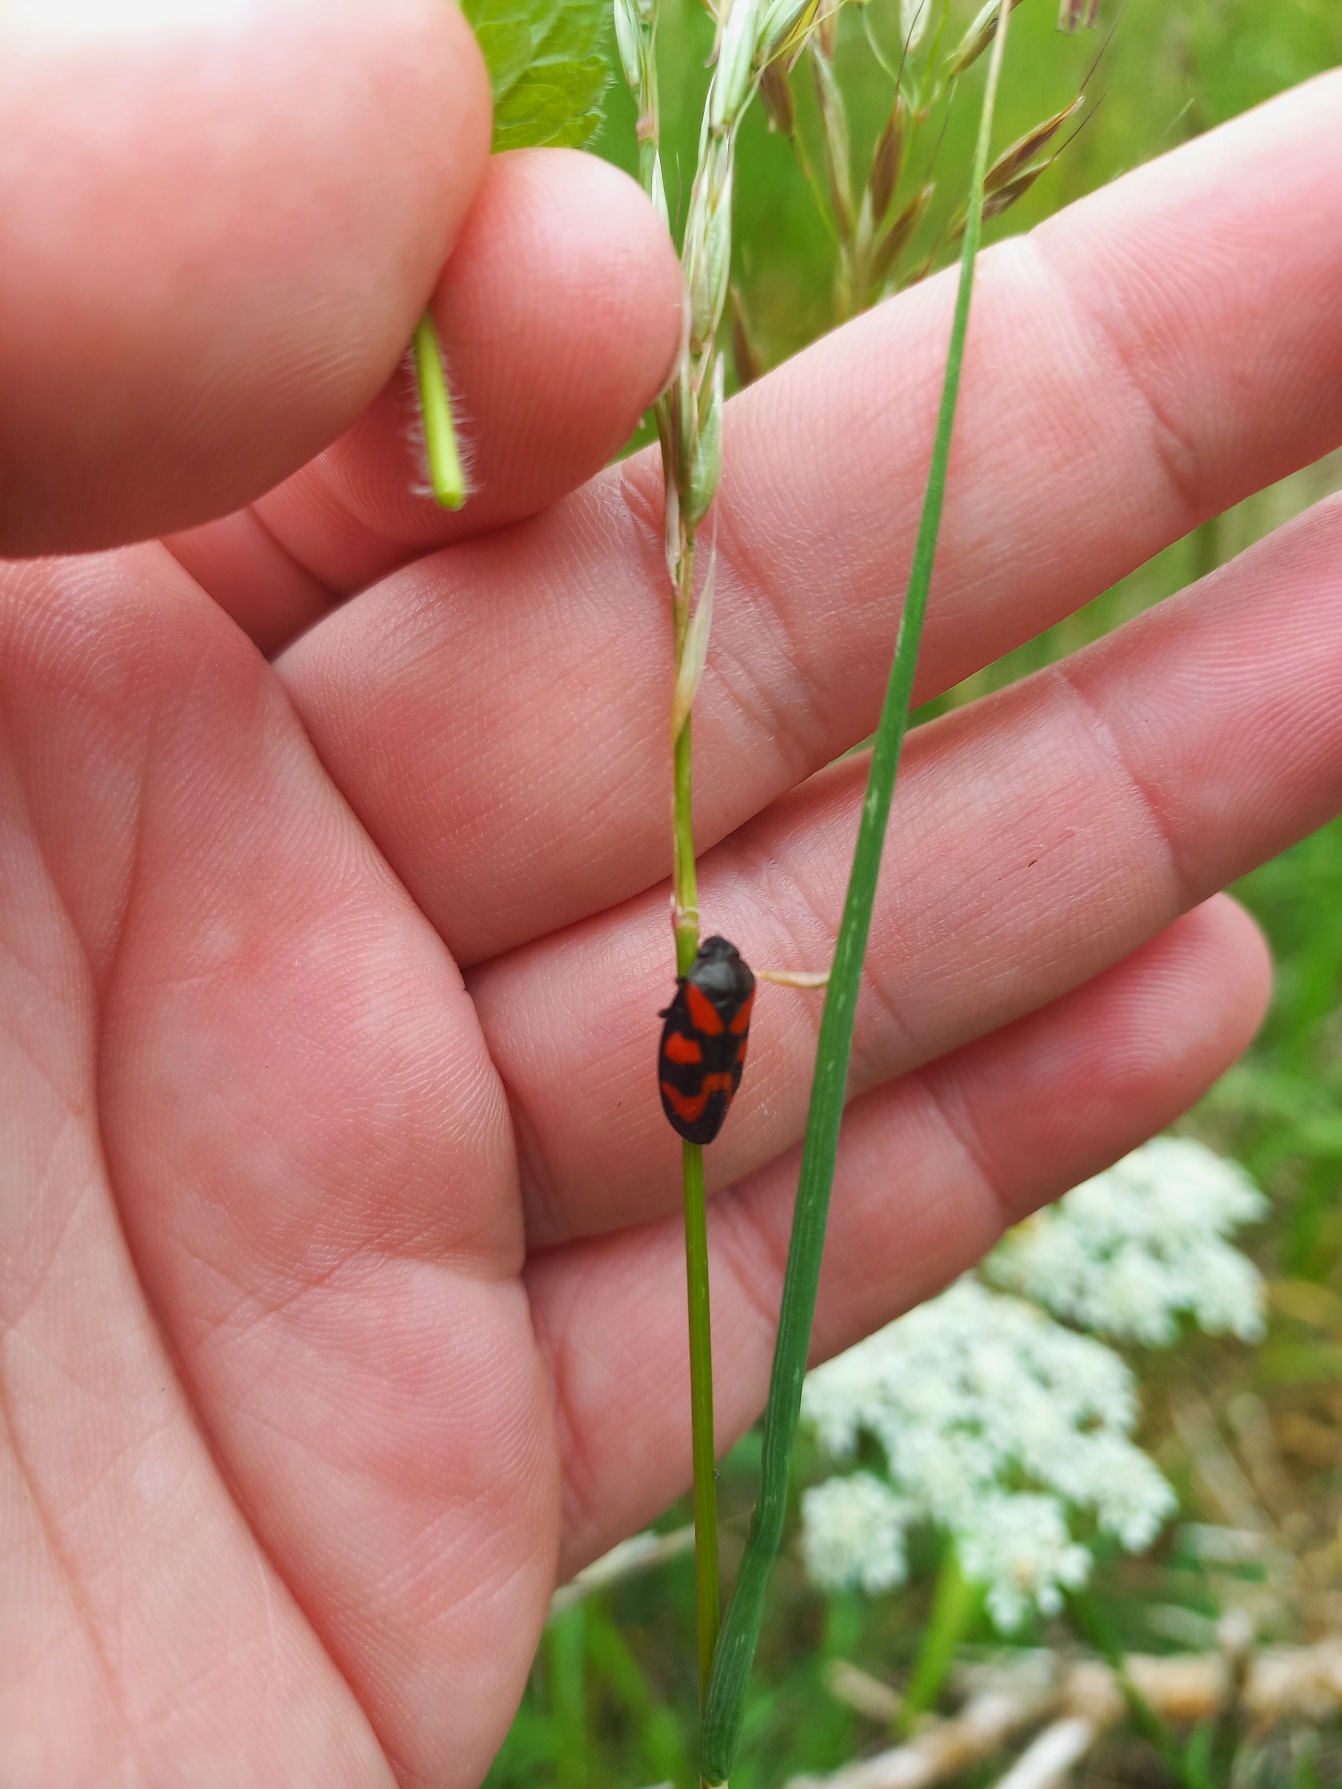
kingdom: Animalia
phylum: Arthropoda
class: Insecta
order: Hemiptera
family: Cercopidae
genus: Cercopis
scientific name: Cercopis vulnerata
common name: Blodcikade
